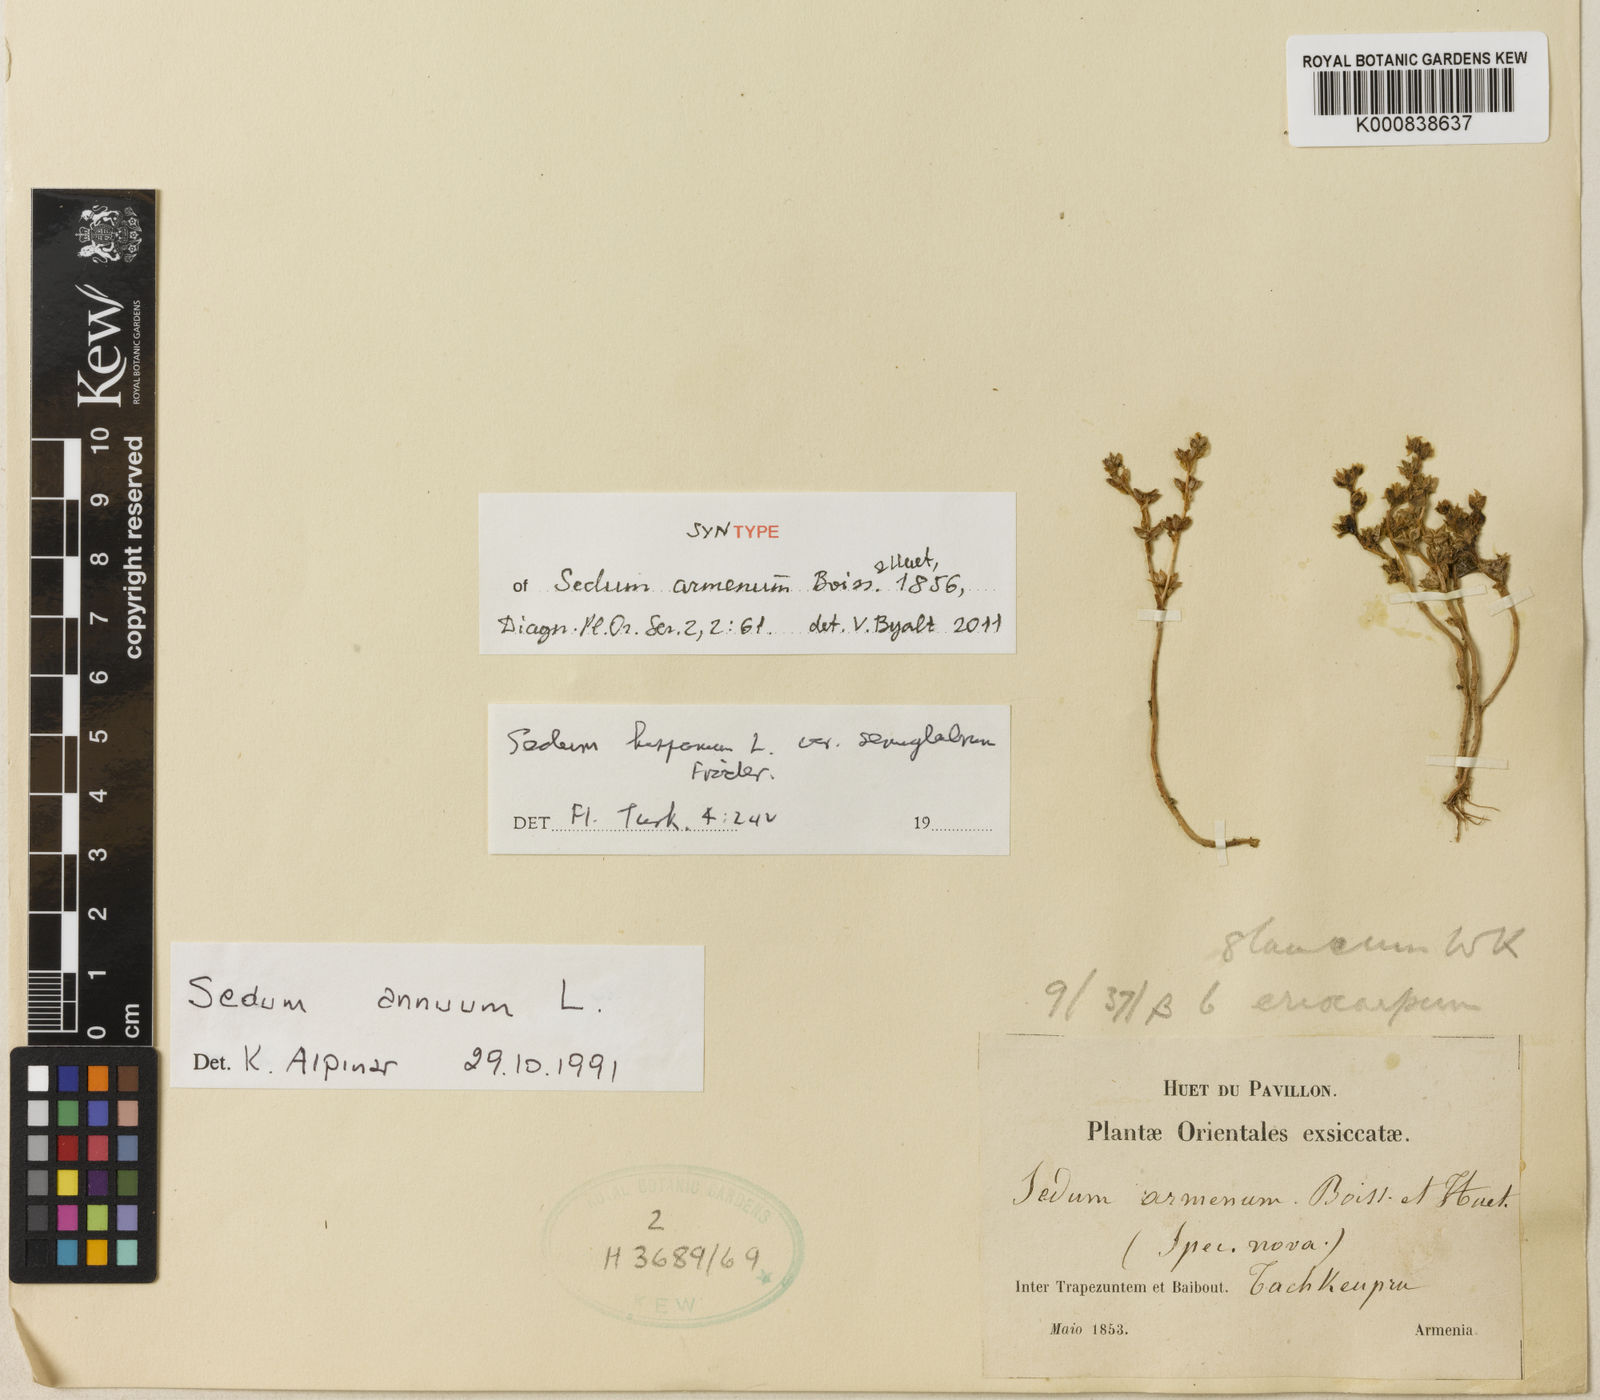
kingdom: Plantae
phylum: Tracheophyta
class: Magnoliopsida
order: Saxifragales
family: Crassulaceae
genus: Sedum
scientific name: Sedum hispanicum
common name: Spanish stonecrop
